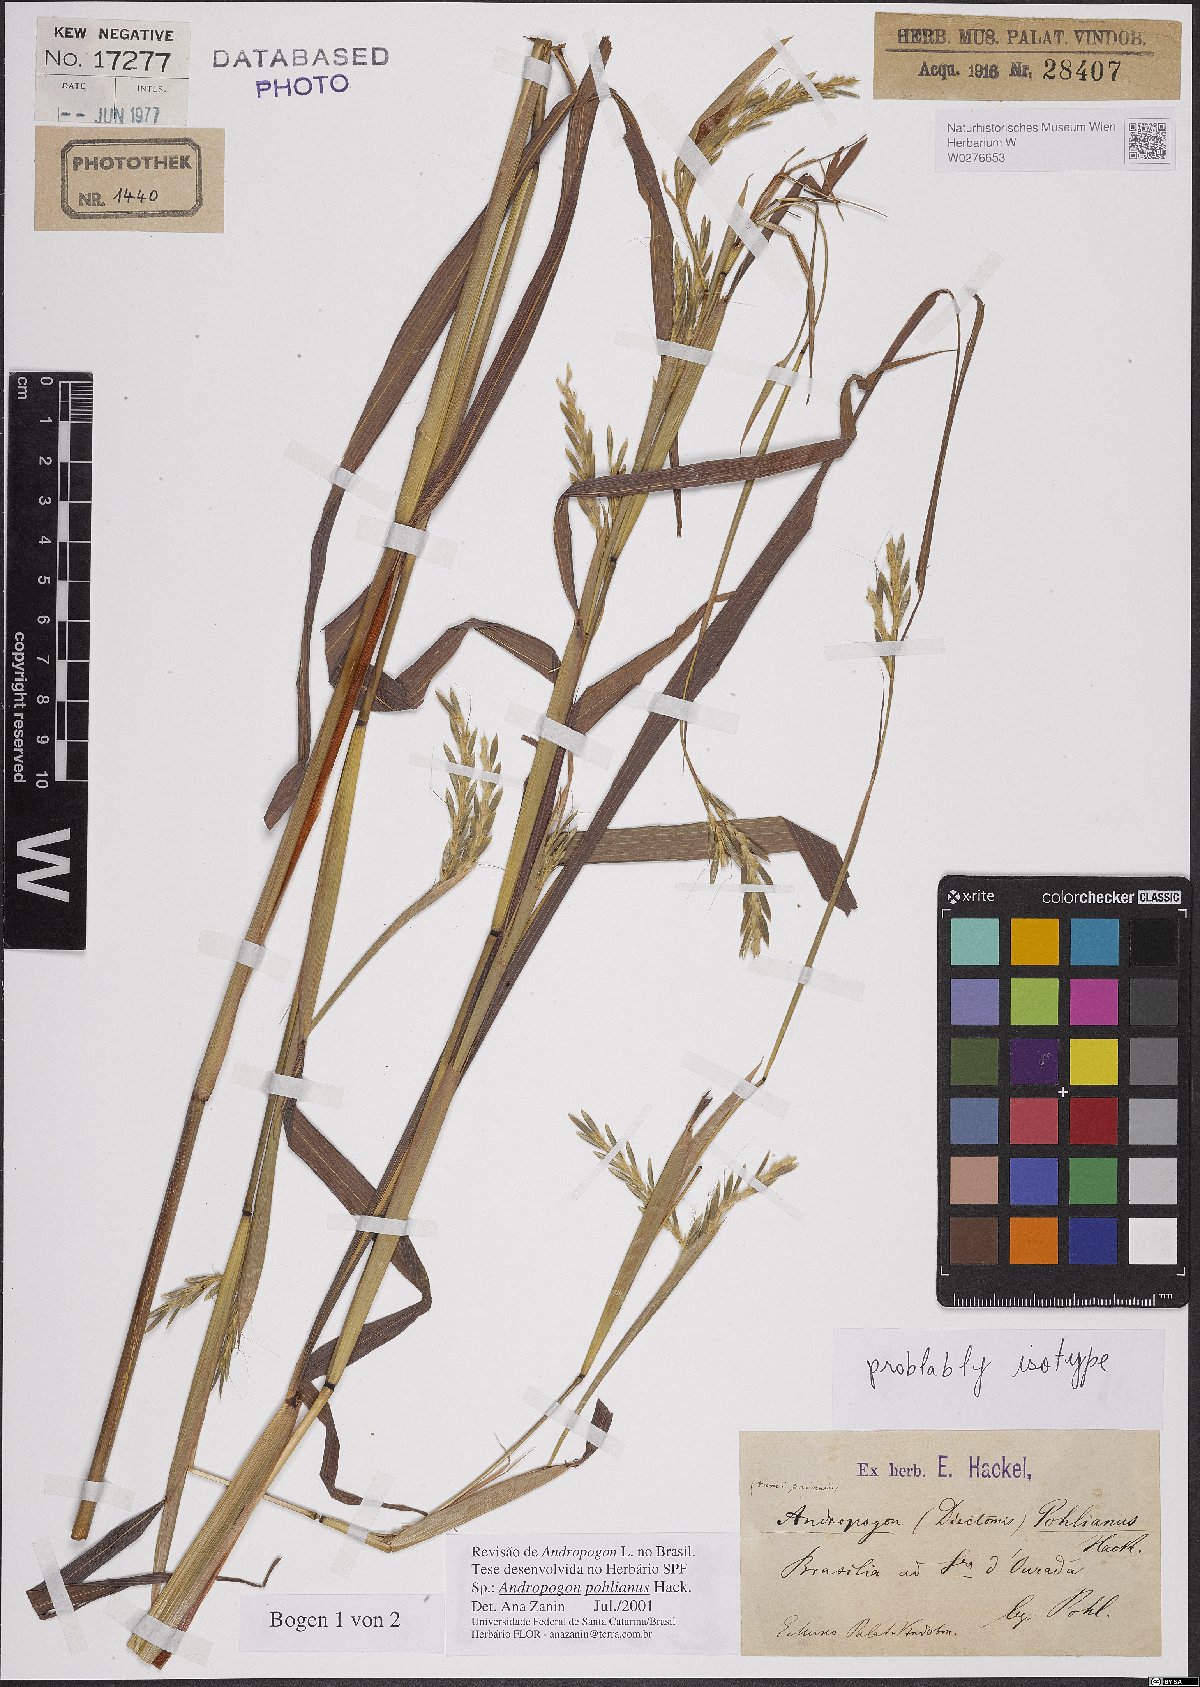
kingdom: Plantae
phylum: Tracheophyta
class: Liliopsida
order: Poales
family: Poaceae
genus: Andropogon
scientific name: Andropogon pohlianus
